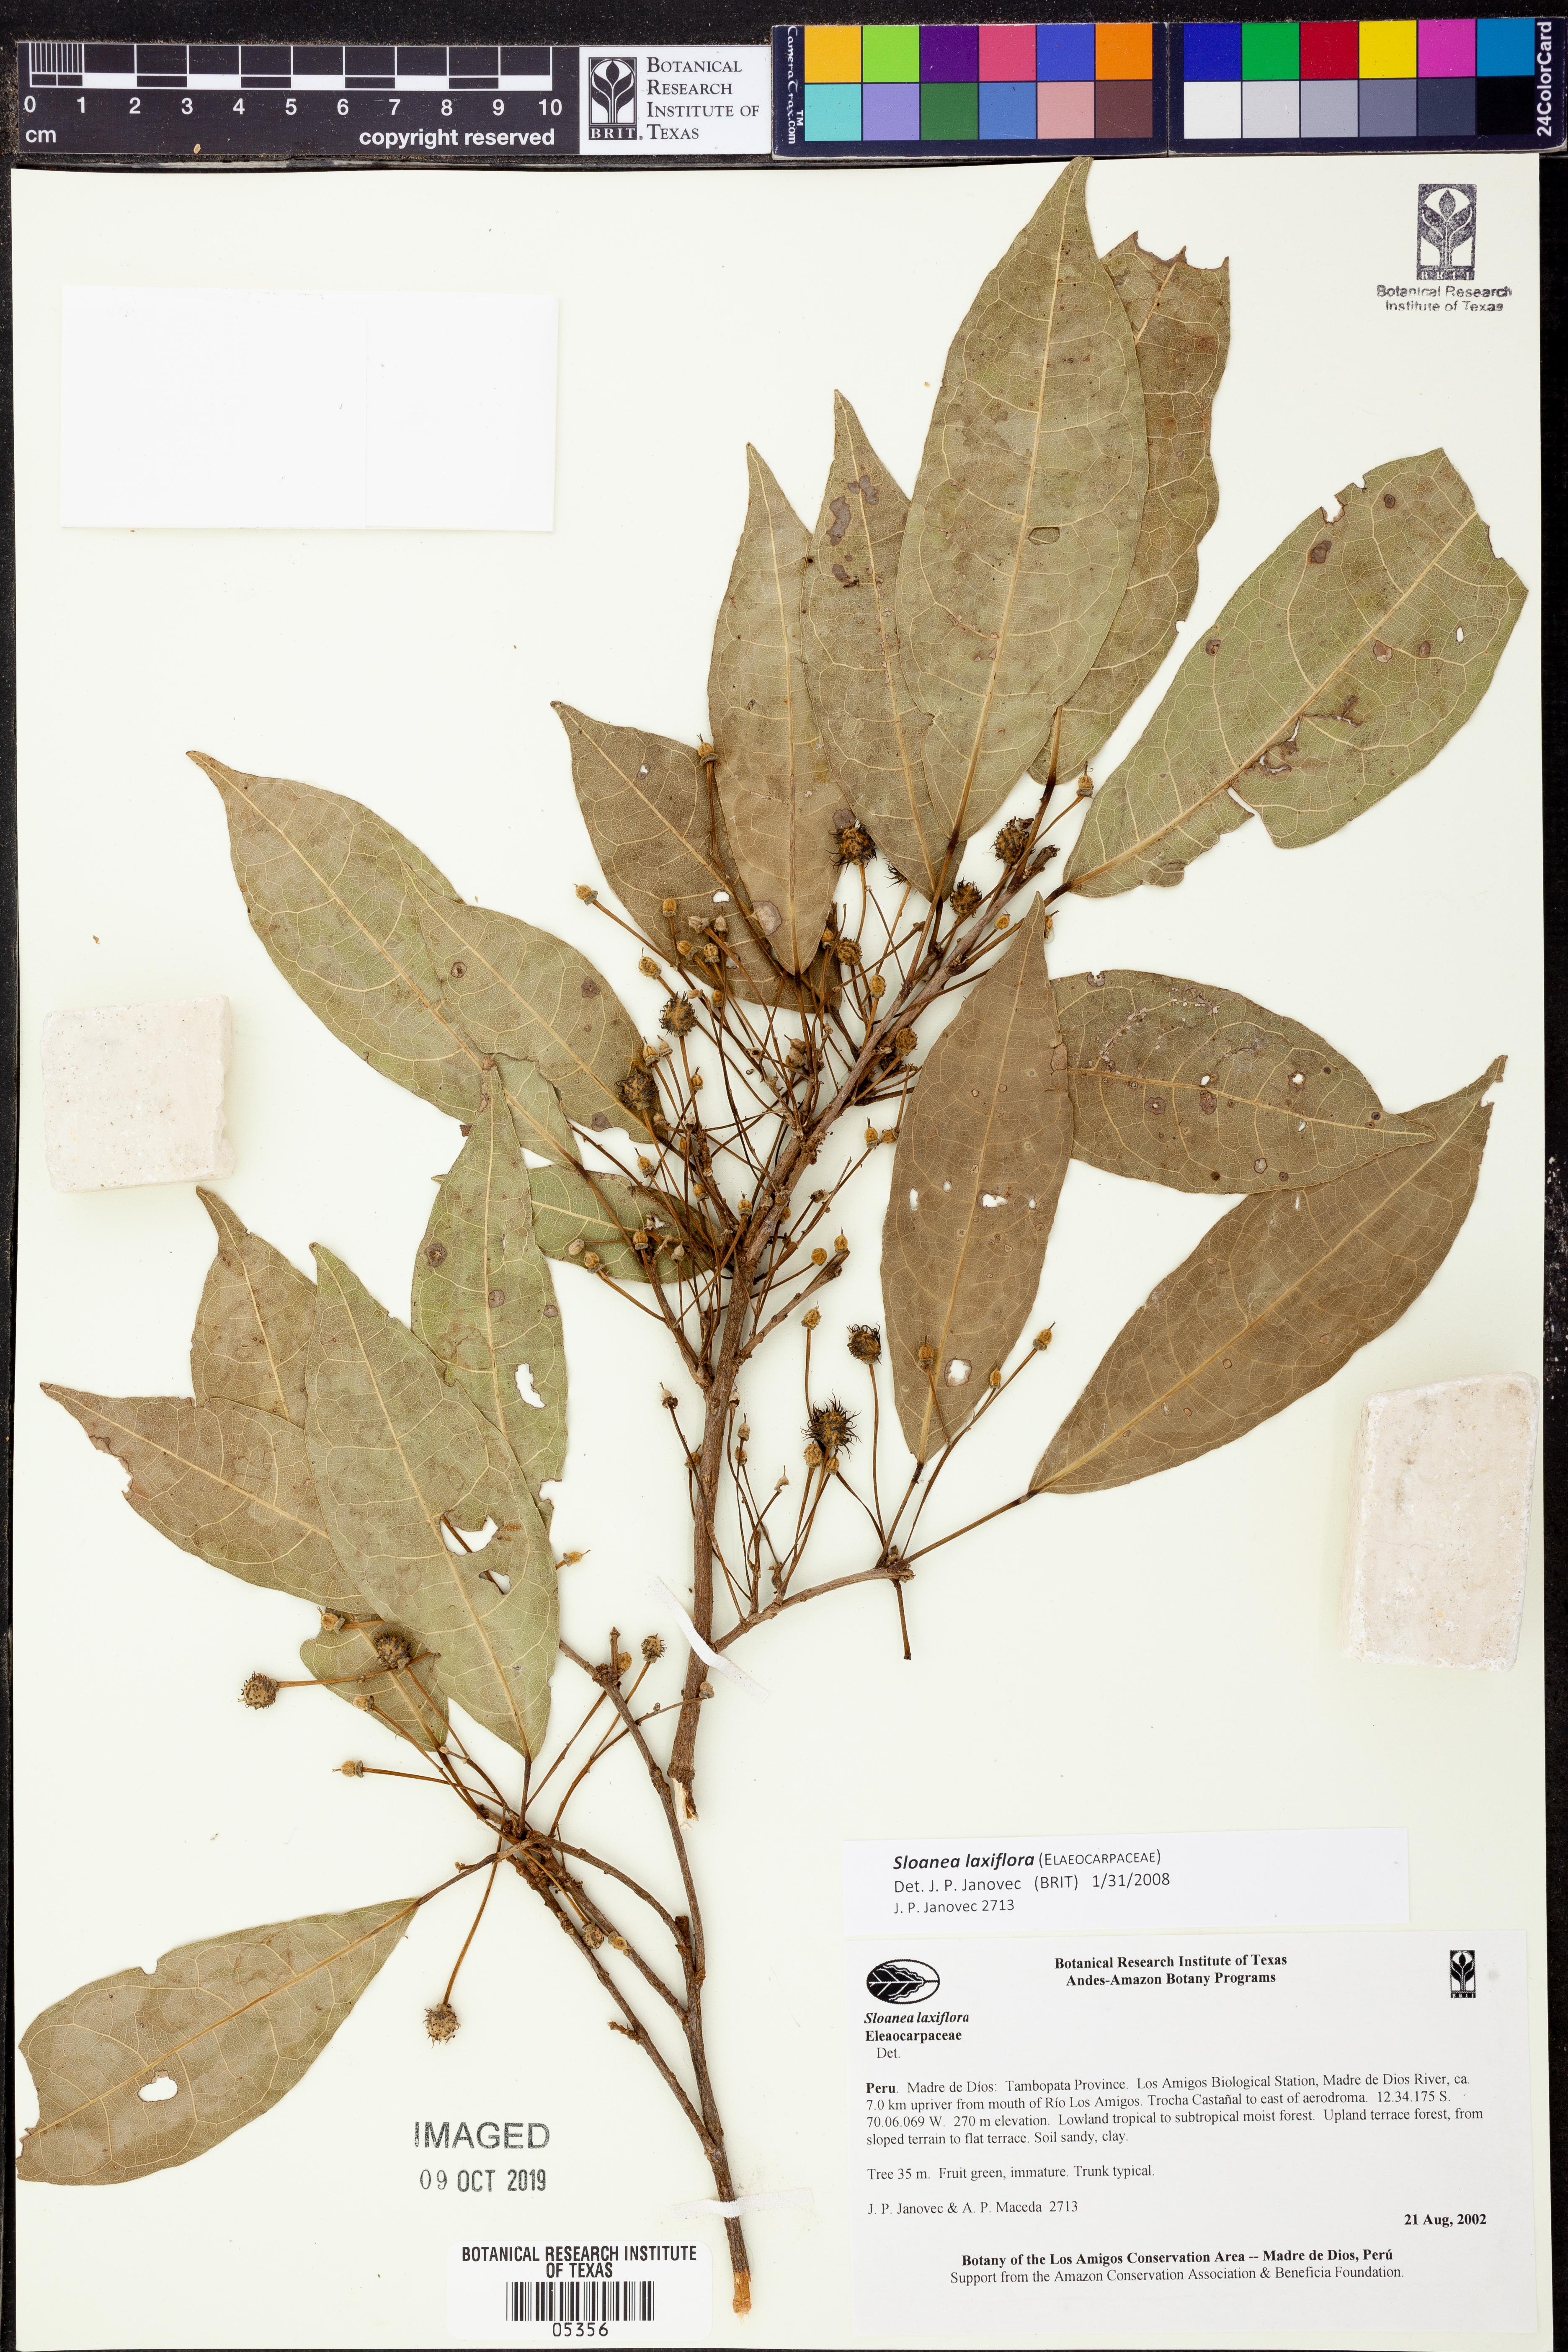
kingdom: Plantae
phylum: Tracheophyta
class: Magnoliopsida
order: Oxalidales
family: Elaeocarpaceae
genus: Sloanea
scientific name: Sloanea
